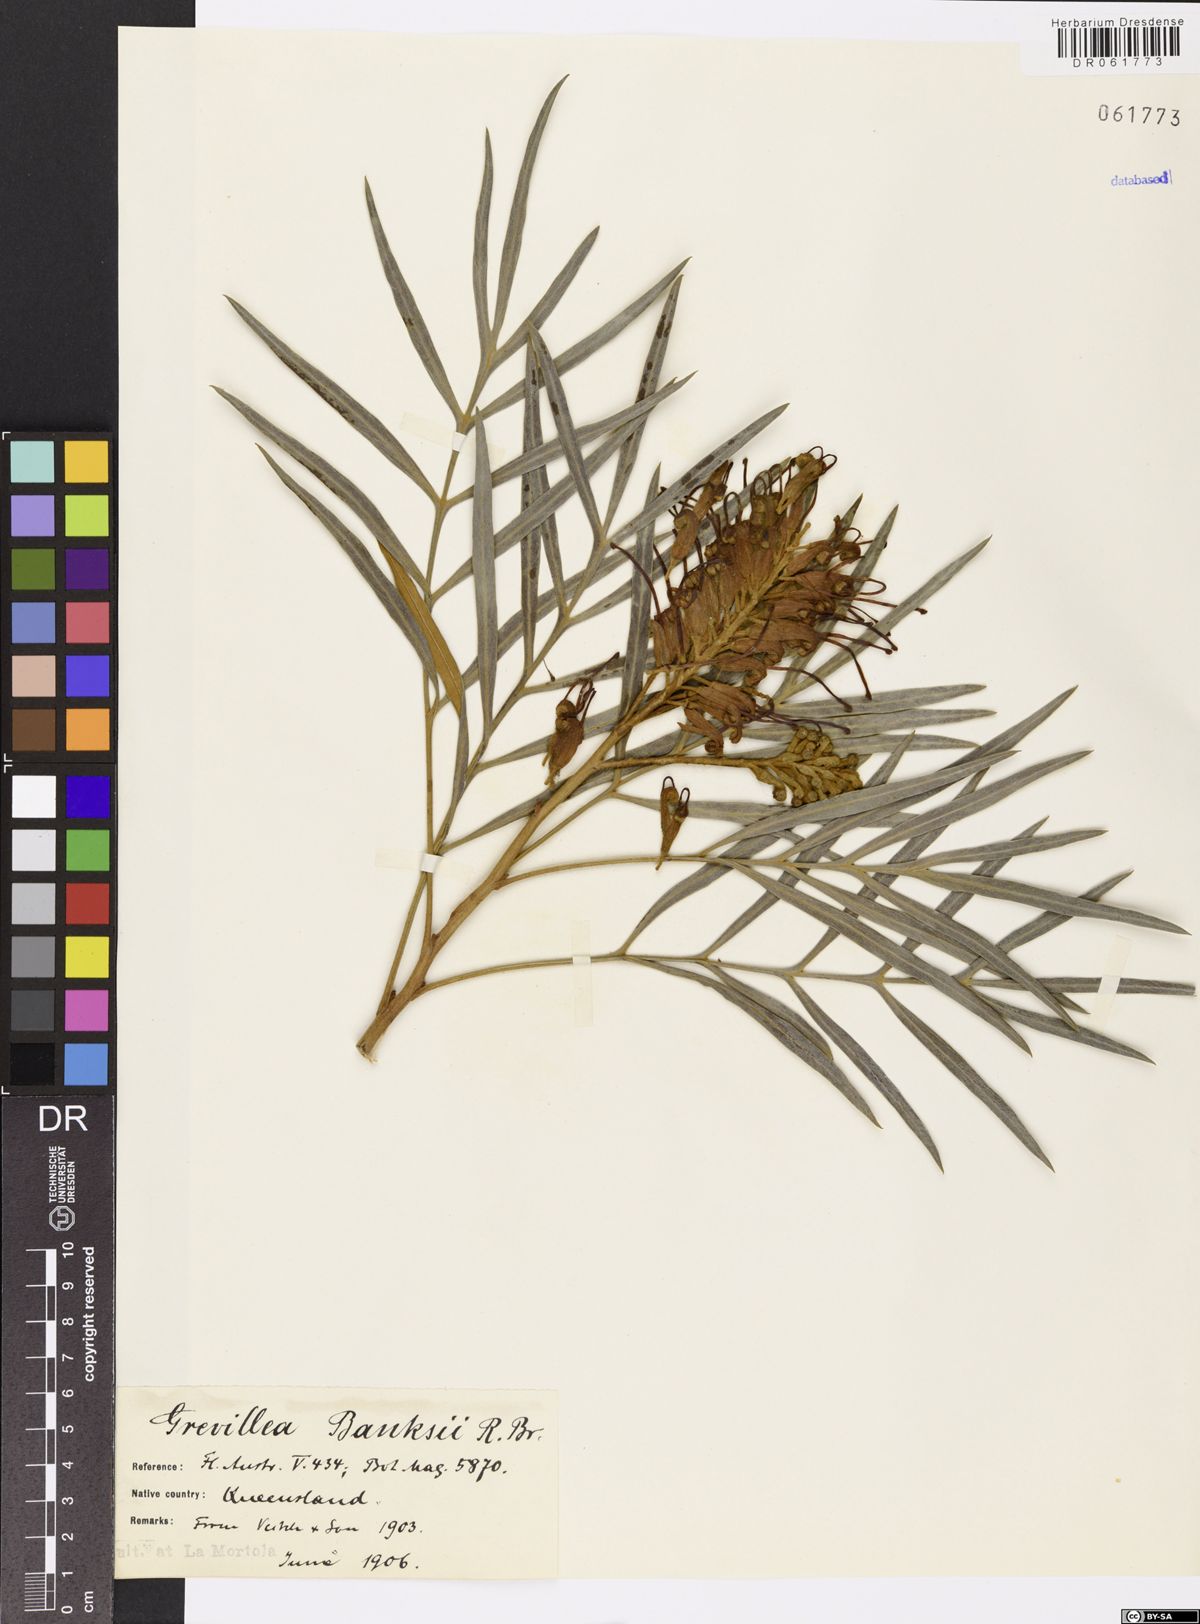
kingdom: Plantae
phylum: Tracheophyta
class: Magnoliopsida
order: Proteales
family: Proteaceae
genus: Grevillea
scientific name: Grevillea banksii
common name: Kahili flower
